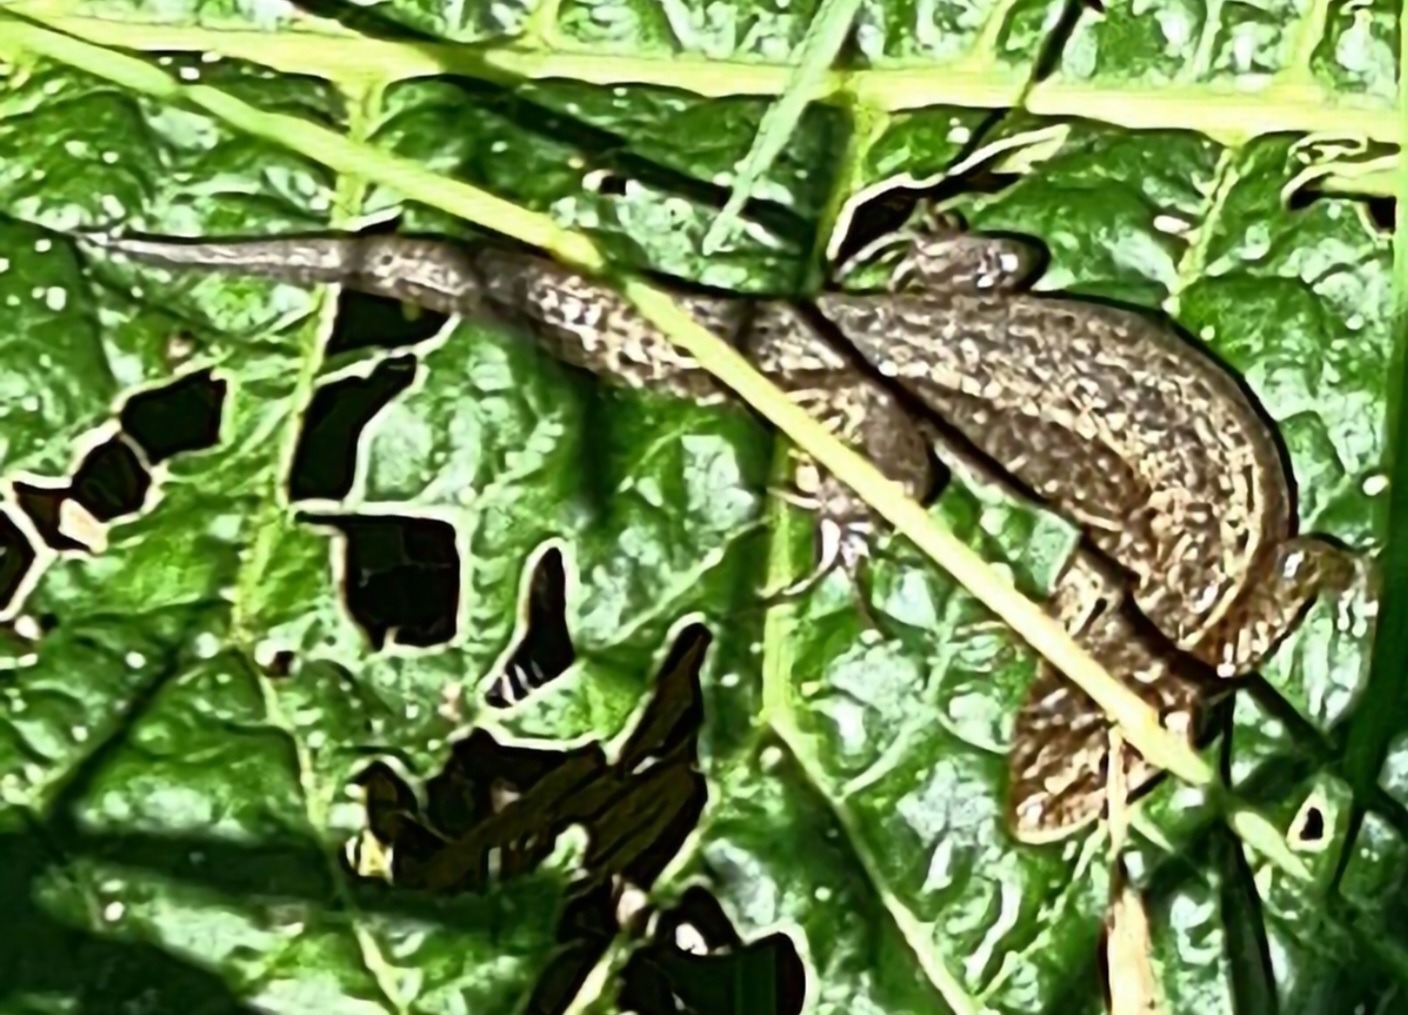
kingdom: Animalia
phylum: Chordata
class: Squamata
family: Lacertidae
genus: Zootoca
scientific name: Zootoca vivipara
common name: Skovfirben
